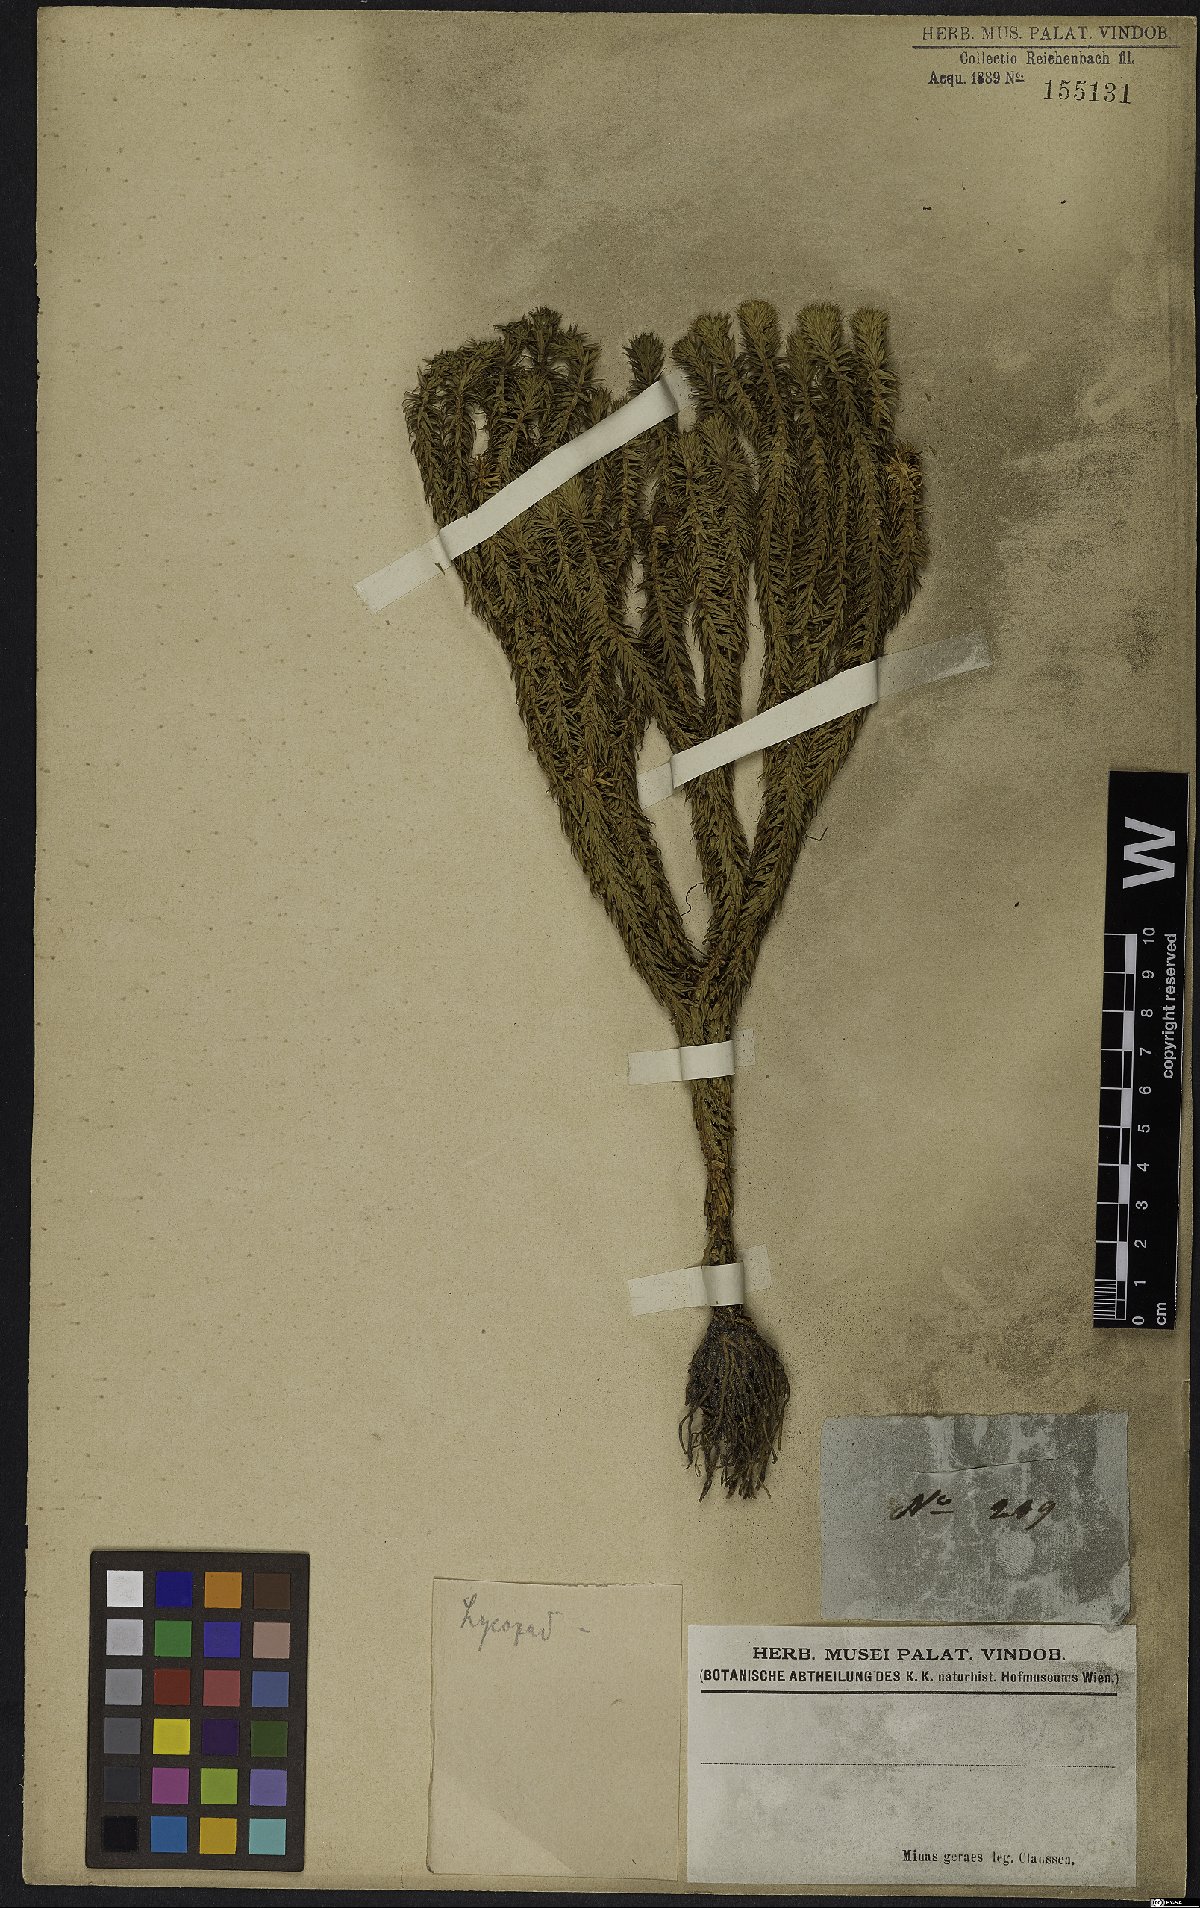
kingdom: Plantae
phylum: Tracheophyta
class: Lycopodiopsida
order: Lycopodiales
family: Lycopodiaceae
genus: Lycopodium
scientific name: Lycopodium
